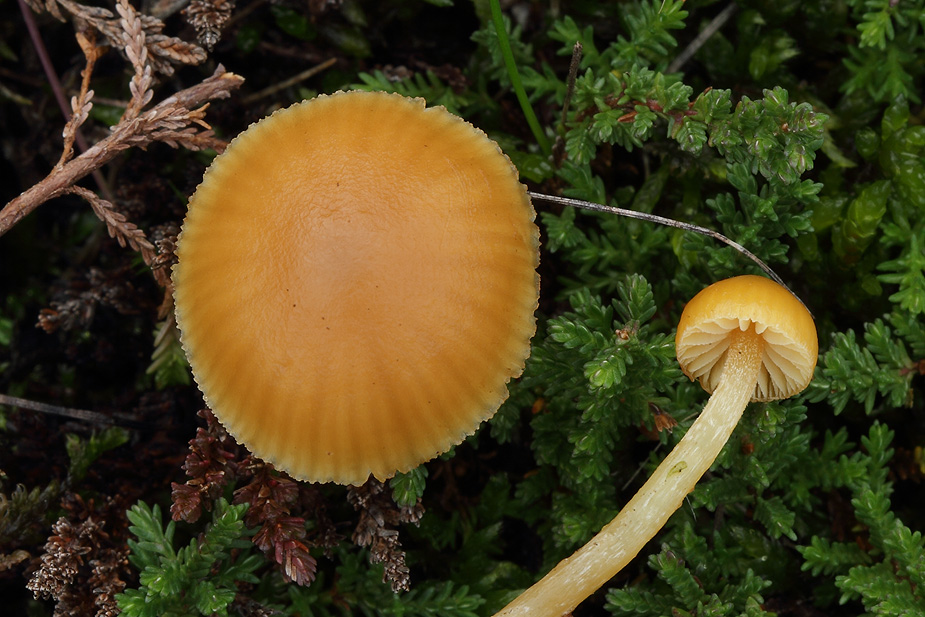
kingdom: Fungi
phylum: Basidiomycota
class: Agaricomycetes
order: Agaricales
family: Hymenogastraceae
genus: Galerina
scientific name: Galerina pumila
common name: honninggul hjelmhat
